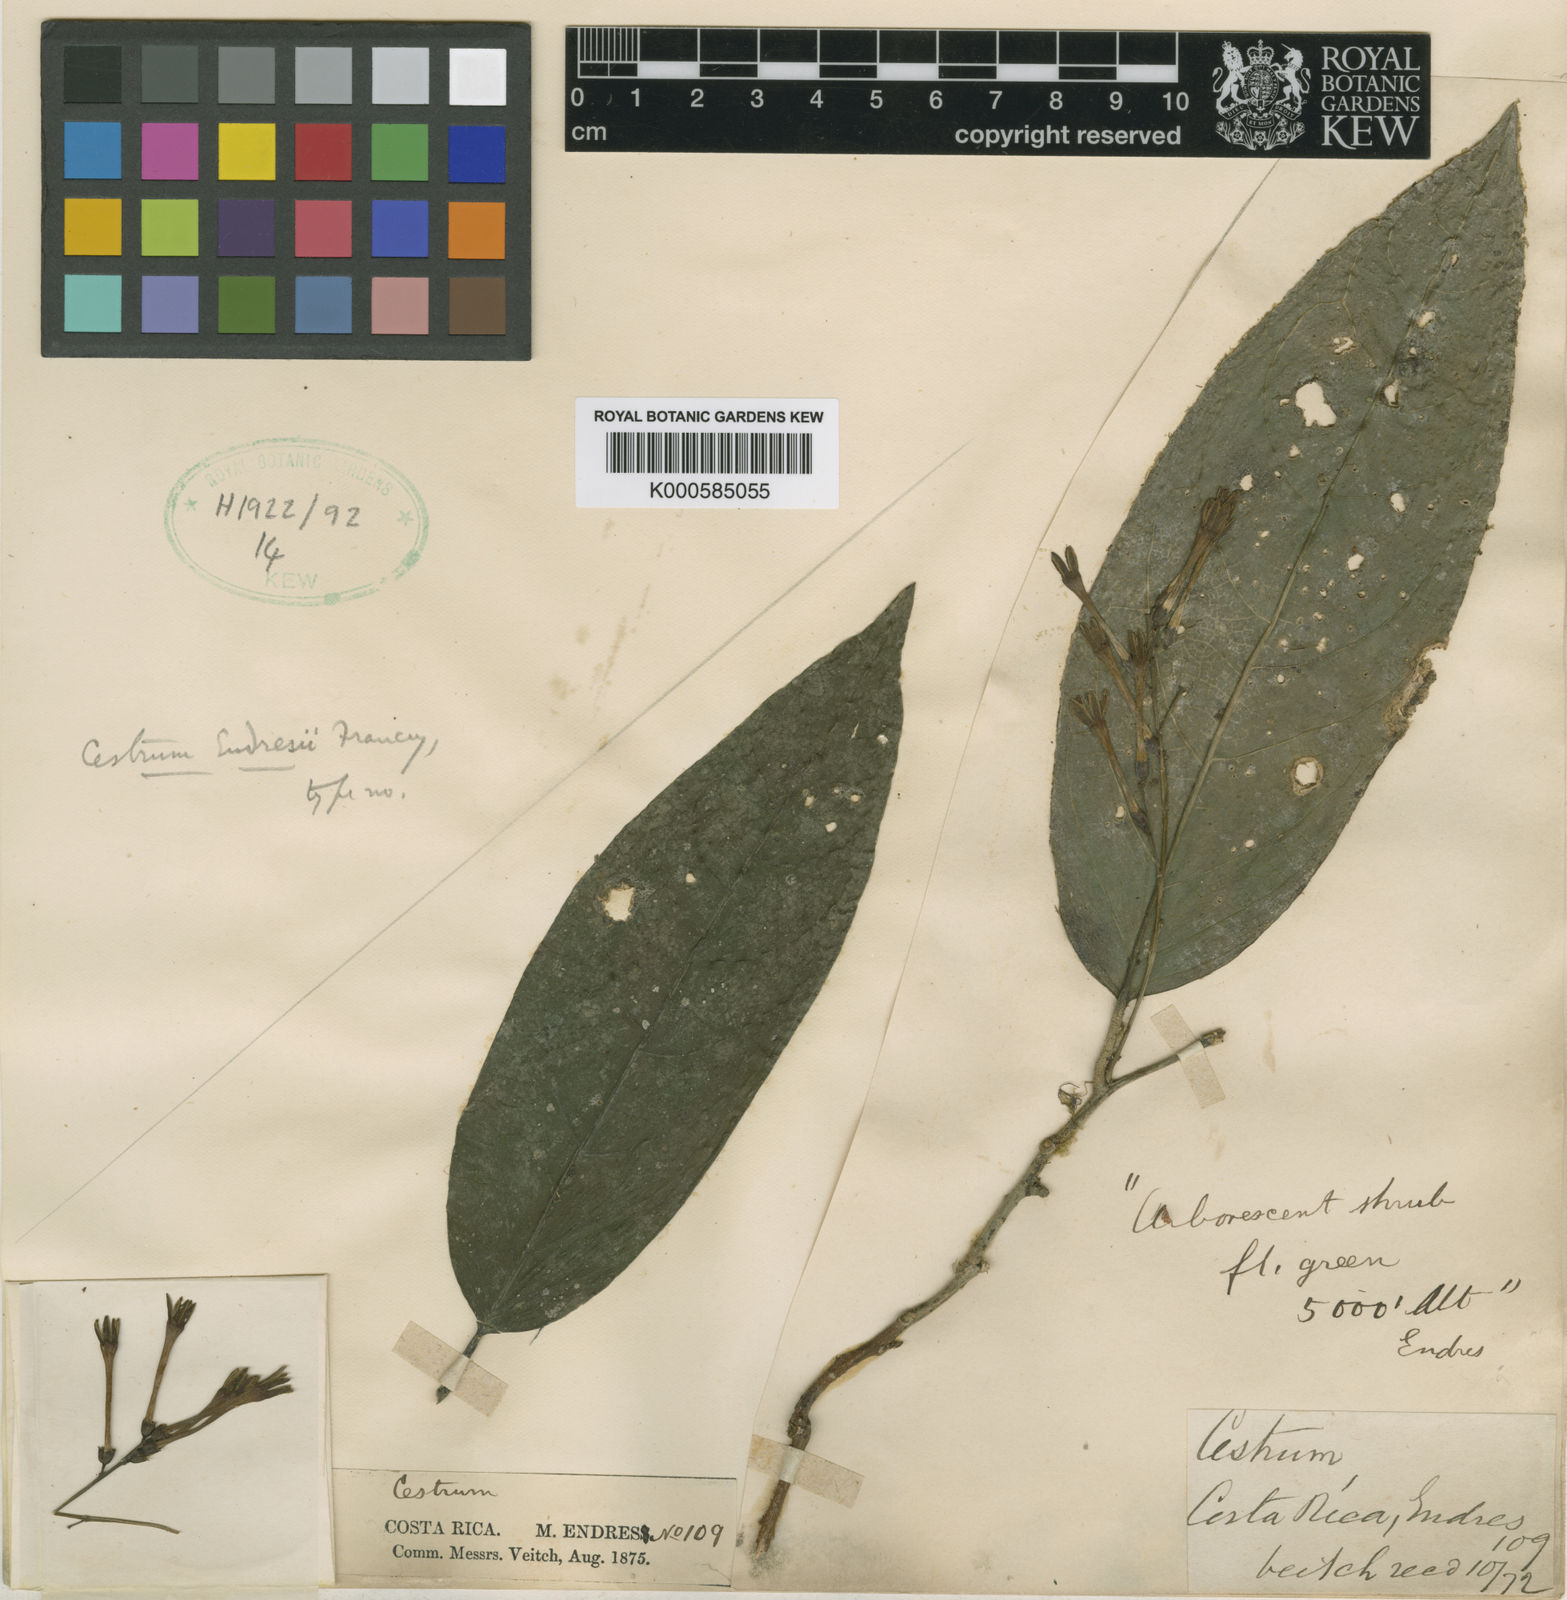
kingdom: Plantae
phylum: Tracheophyta
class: Magnoliopsida
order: Solanales
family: Solanaceae
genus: Cestrum
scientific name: Cestrum endresii
